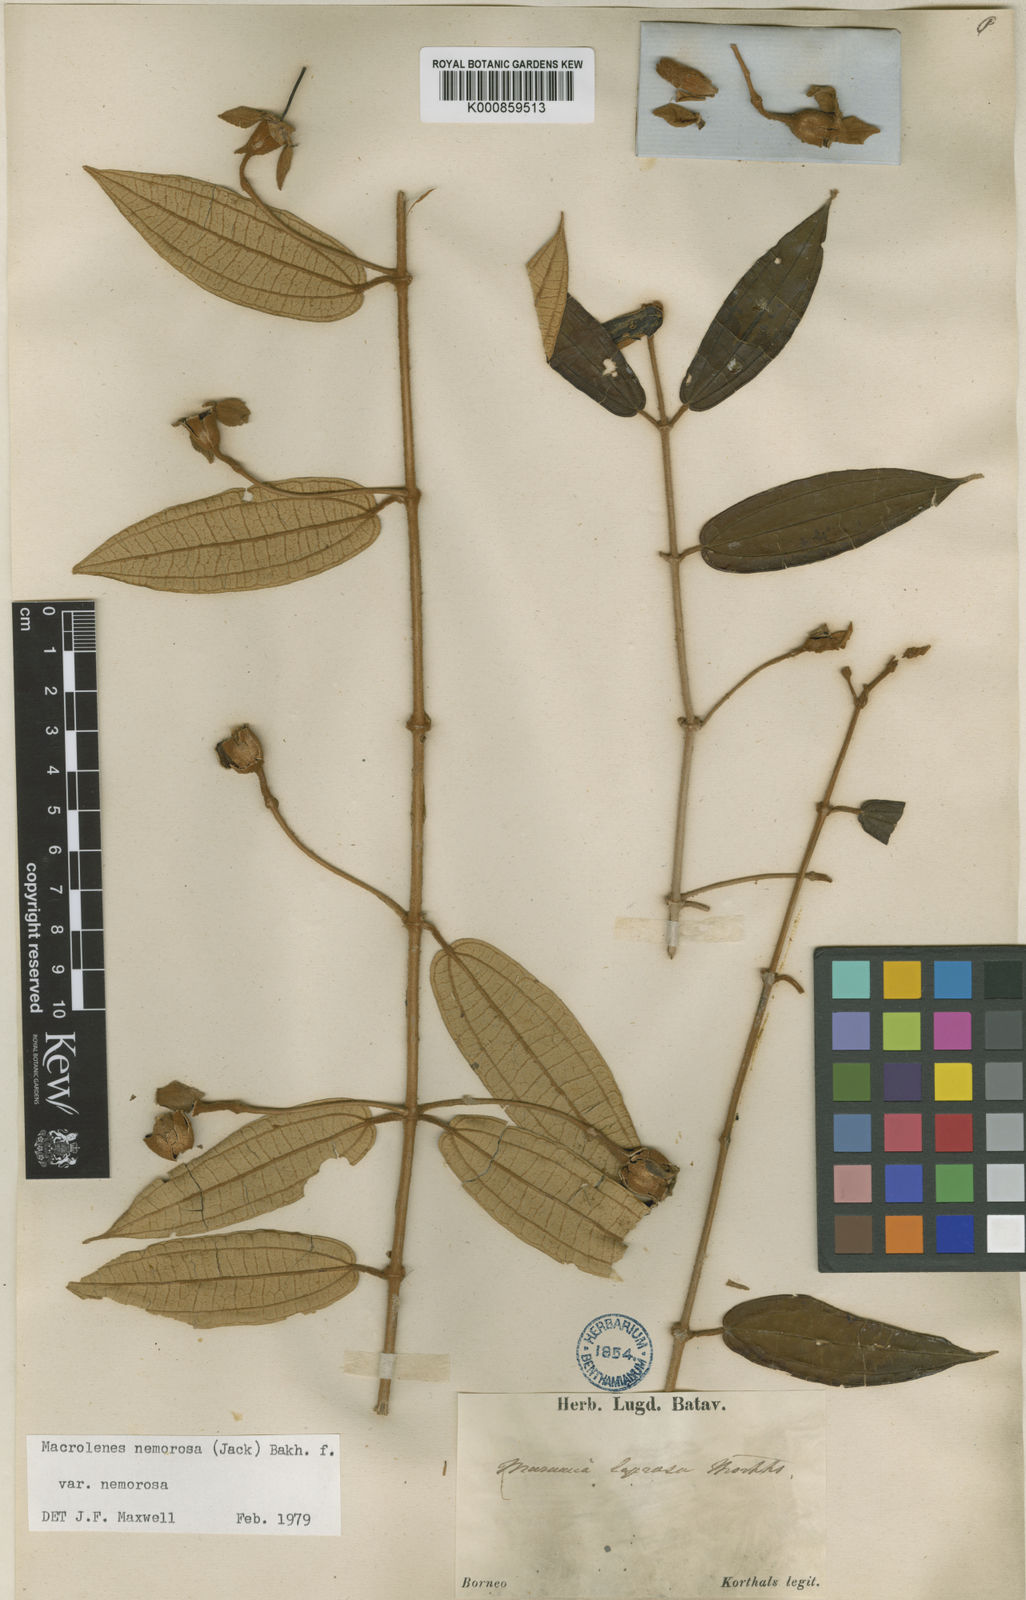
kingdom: Plantae
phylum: Tracheophyta
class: Magnoliopsida
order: Myrtales
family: Melastomataceae
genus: Macrolenes
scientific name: Macrolenes nemorosa
